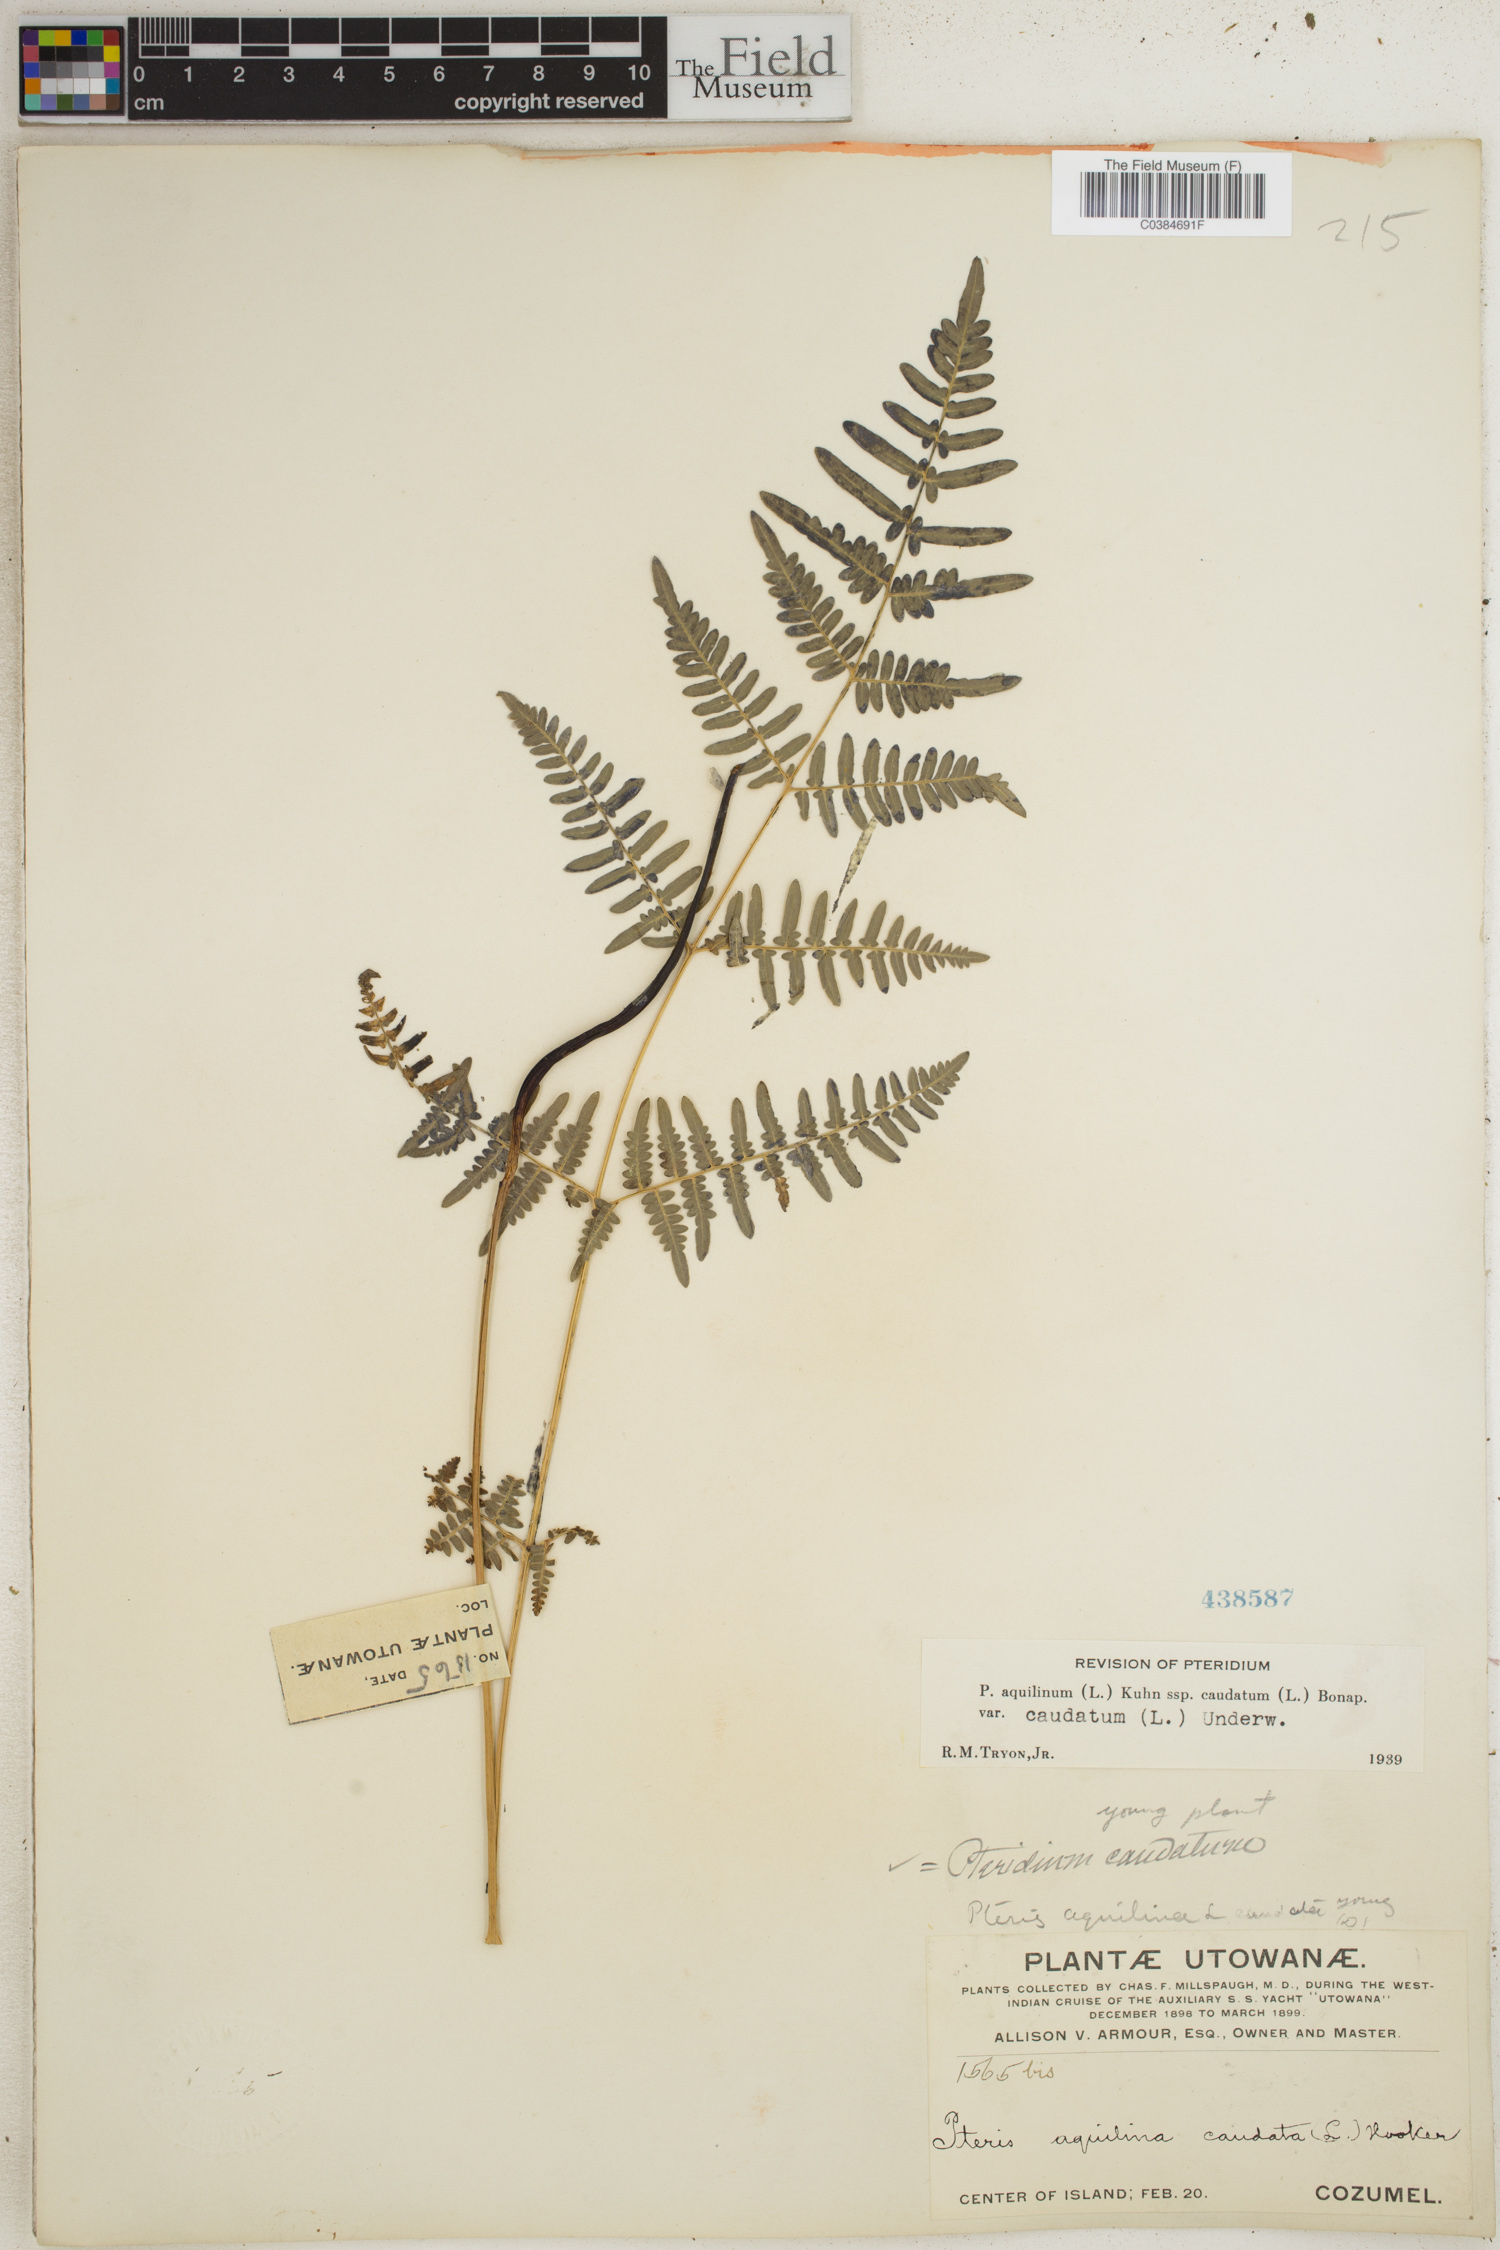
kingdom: Plantae
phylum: Tracheophyta
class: Polypodiopsida
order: Polypodiales
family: Dennstaedtiaceae
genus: Pteridium
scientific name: Pteridium caudatum
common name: Southern bracken fern
